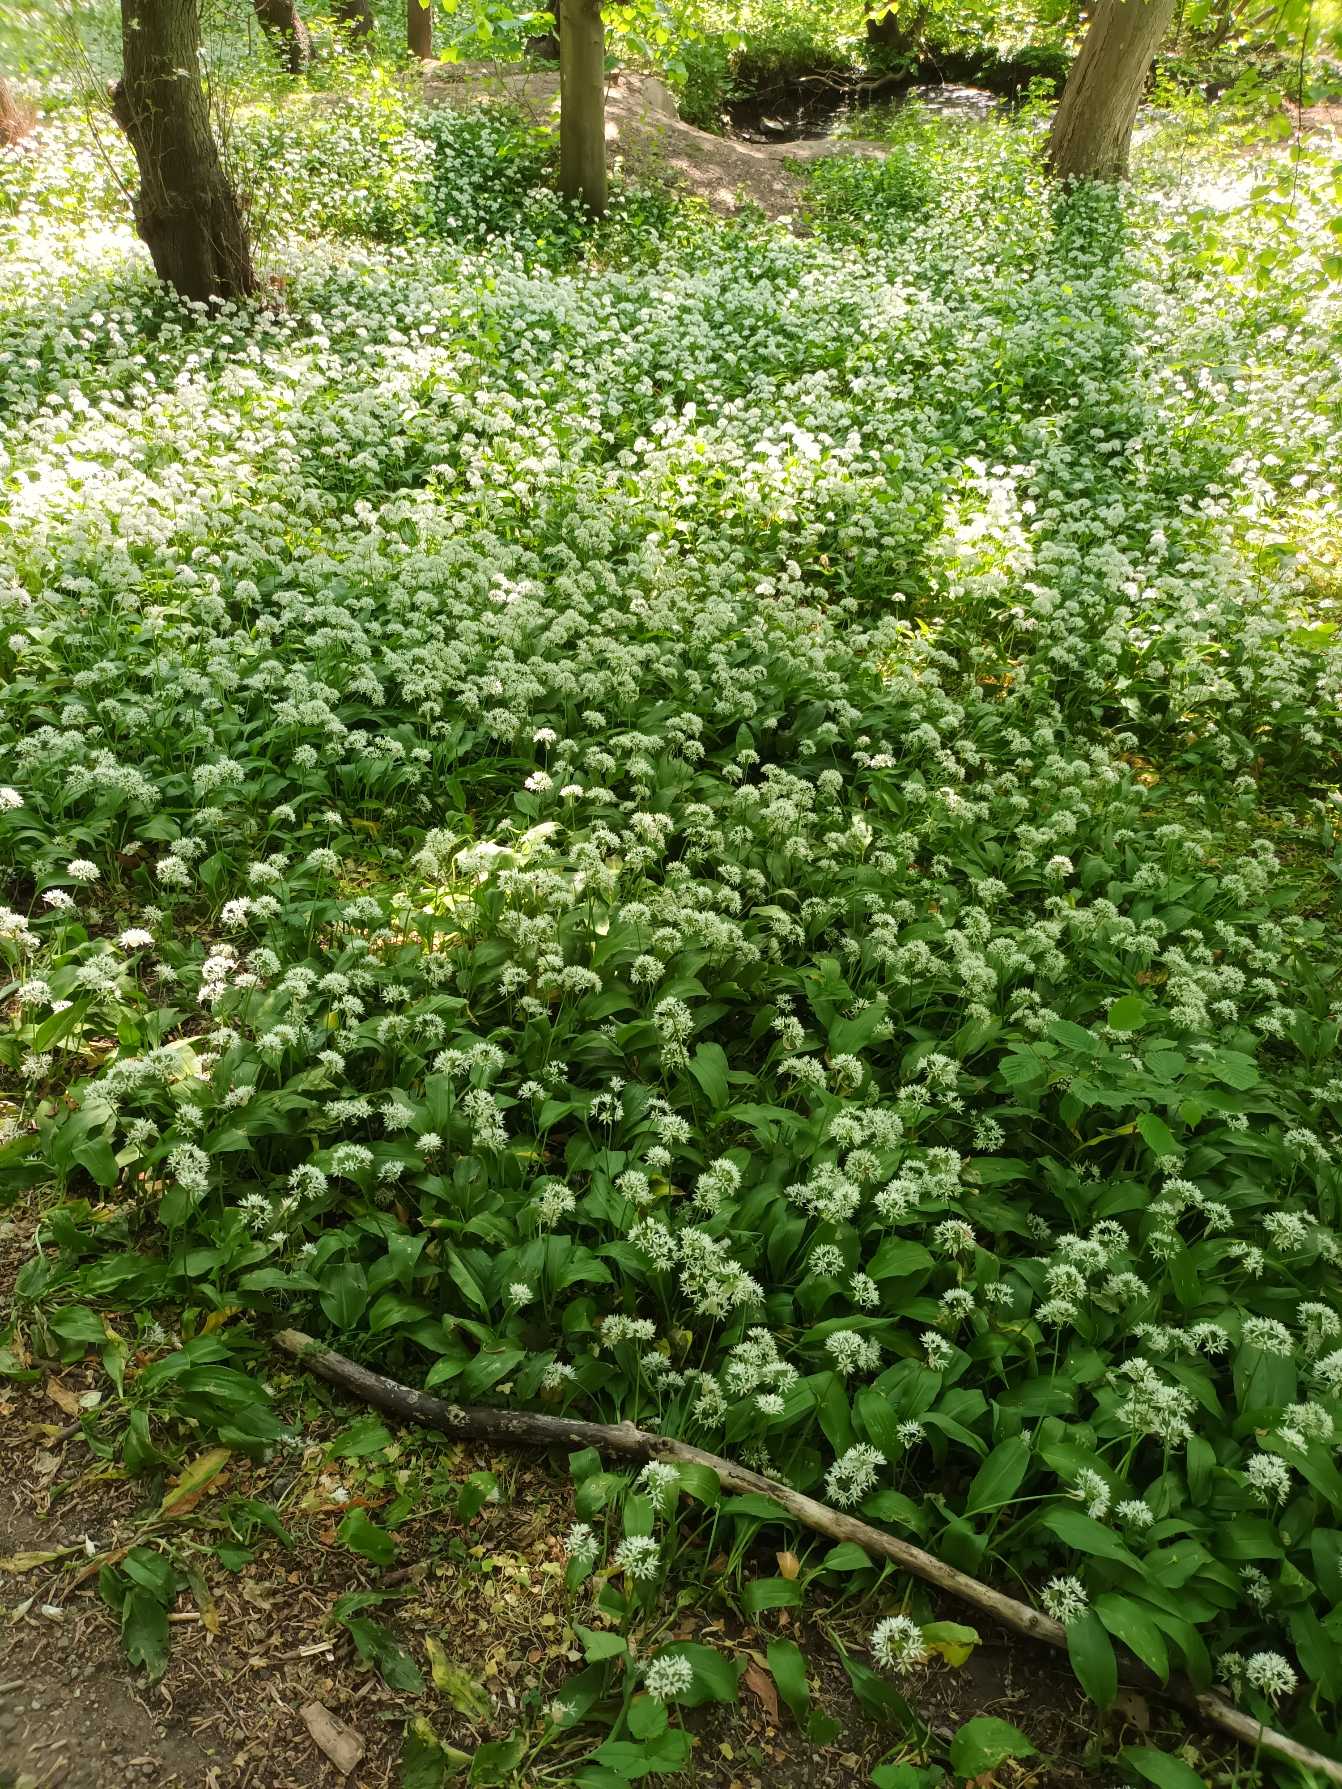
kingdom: Plantae
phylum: Tracheophyta
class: Liliopsida
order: Asparagales
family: Amaryllidaceae
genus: Allium
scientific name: Allium ursinum
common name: Rams-løg
